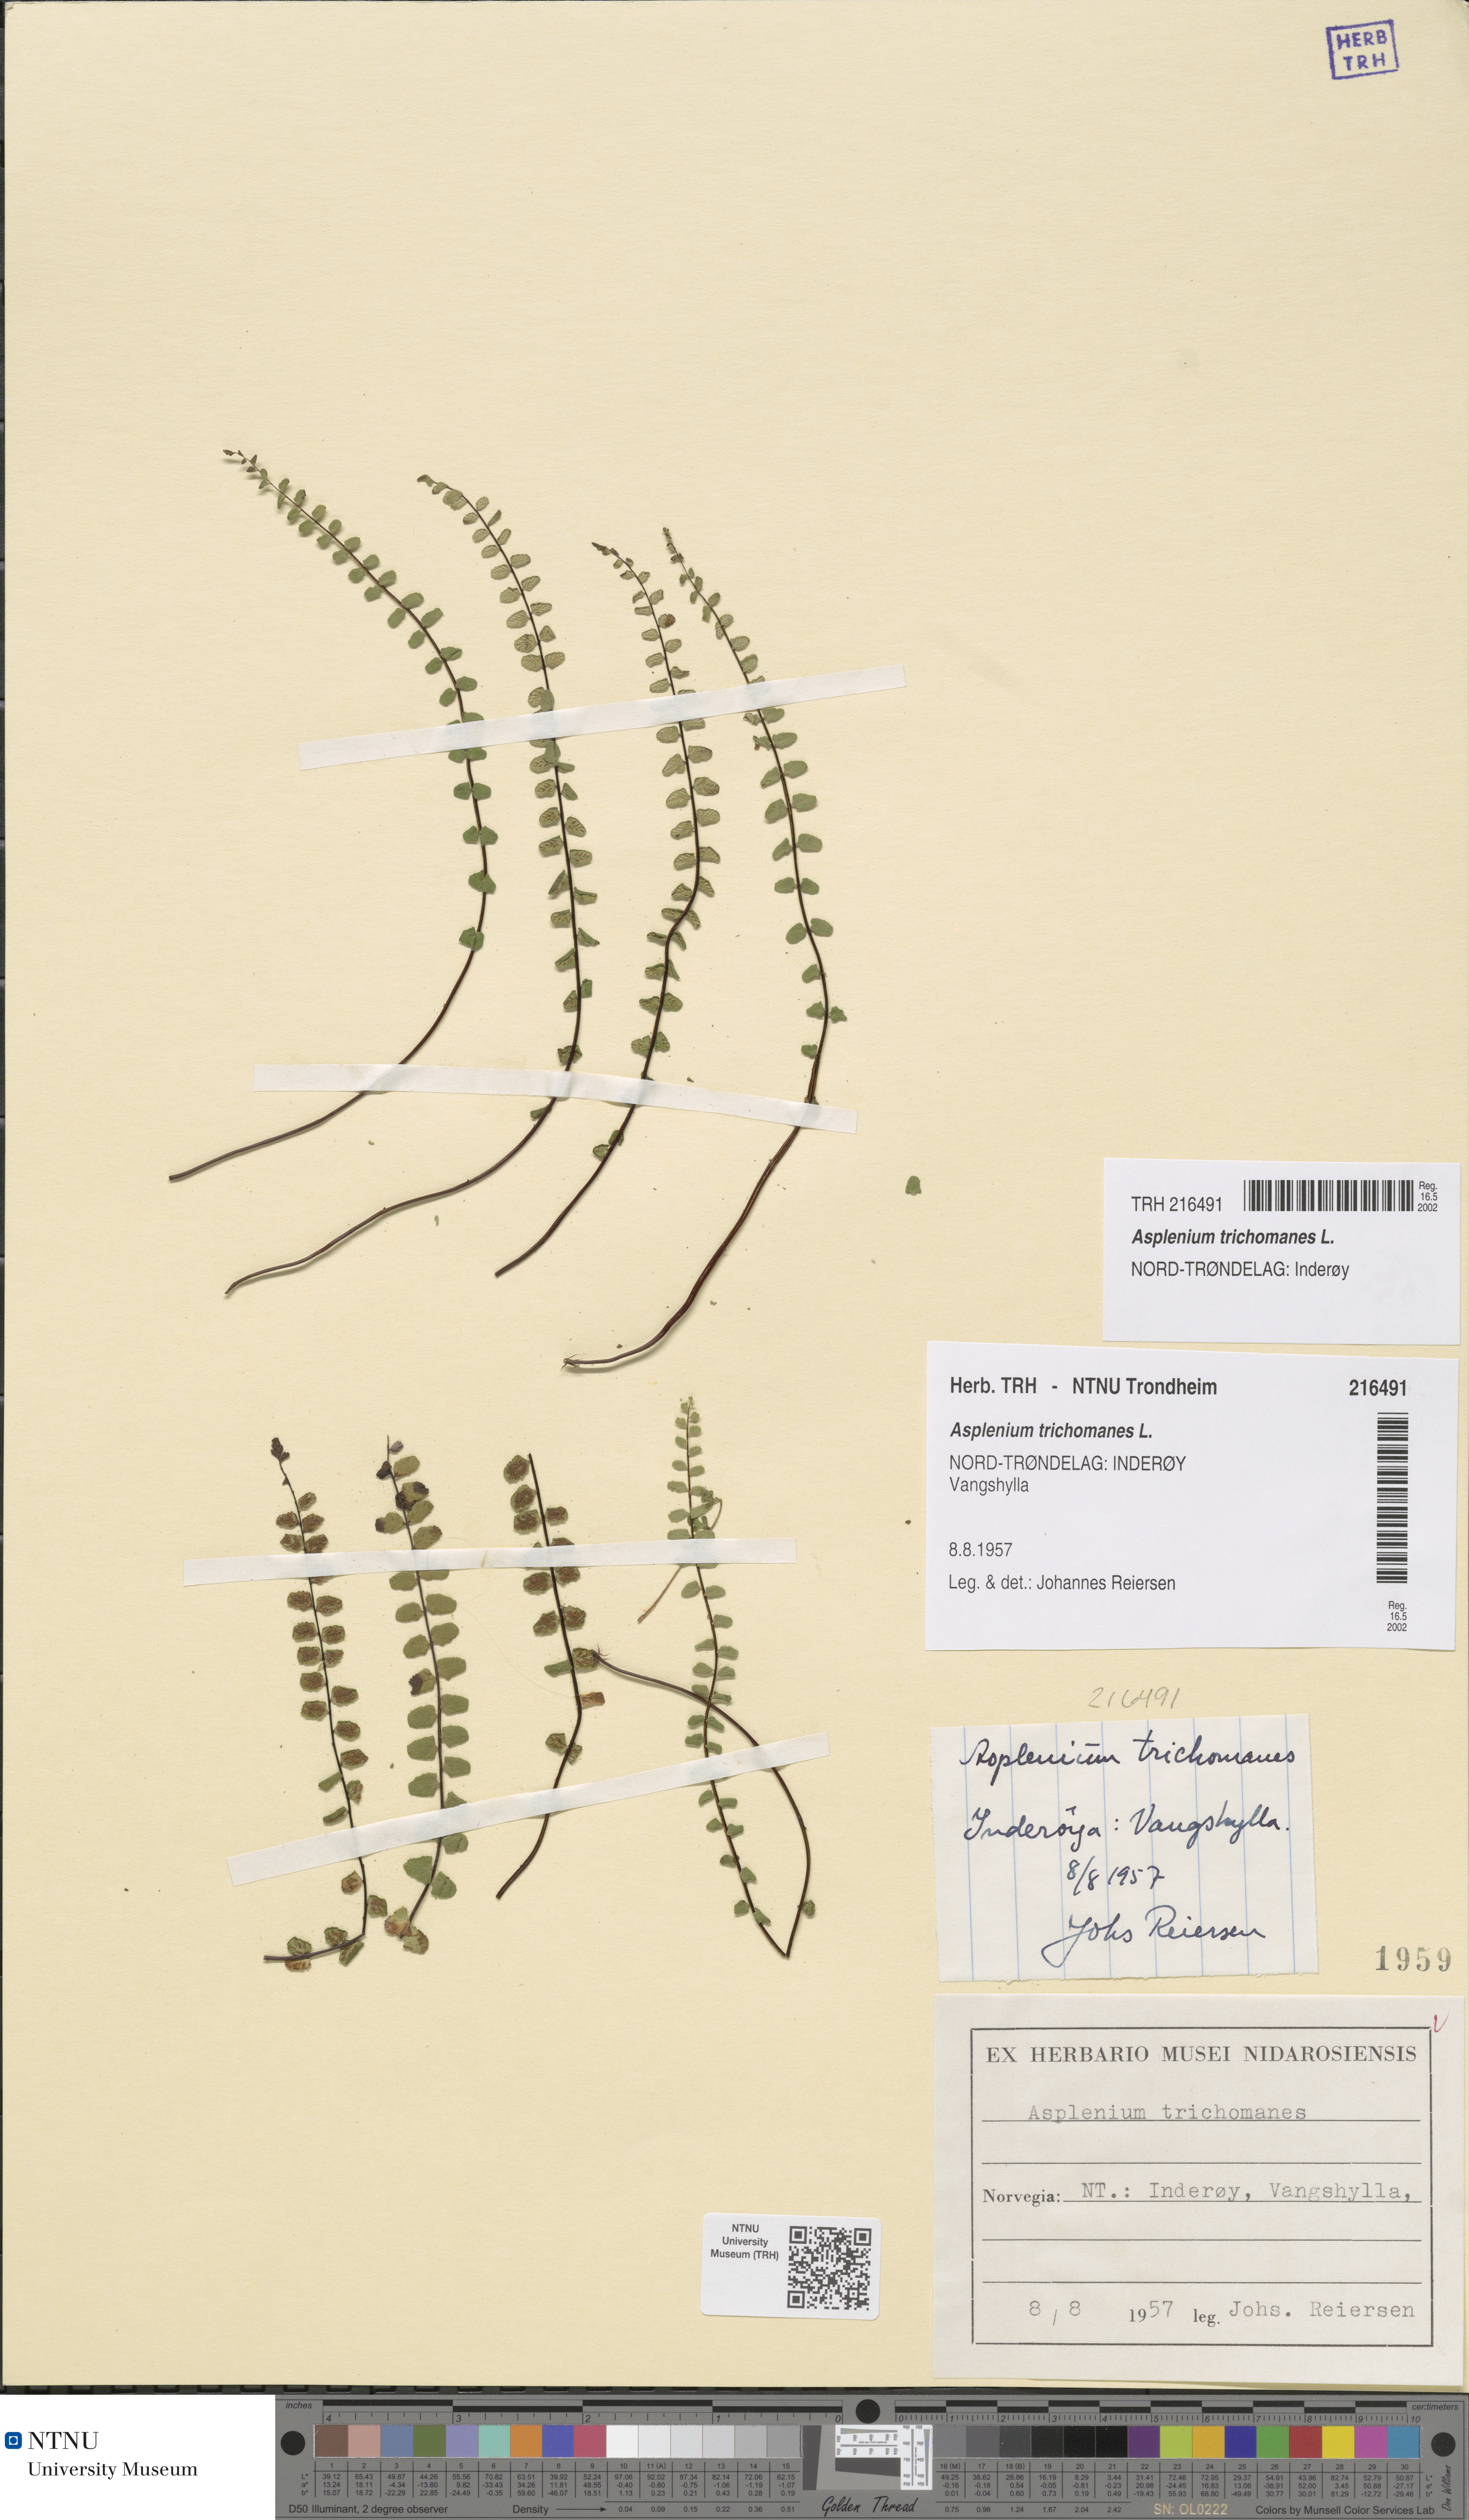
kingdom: Plantae
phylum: Tracheophyta
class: Polypodiopsida
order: Polypodiales
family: Aspleniaceae
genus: Asplenium
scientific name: Asplenium trichomanes
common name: Maidenhair spleenwort
